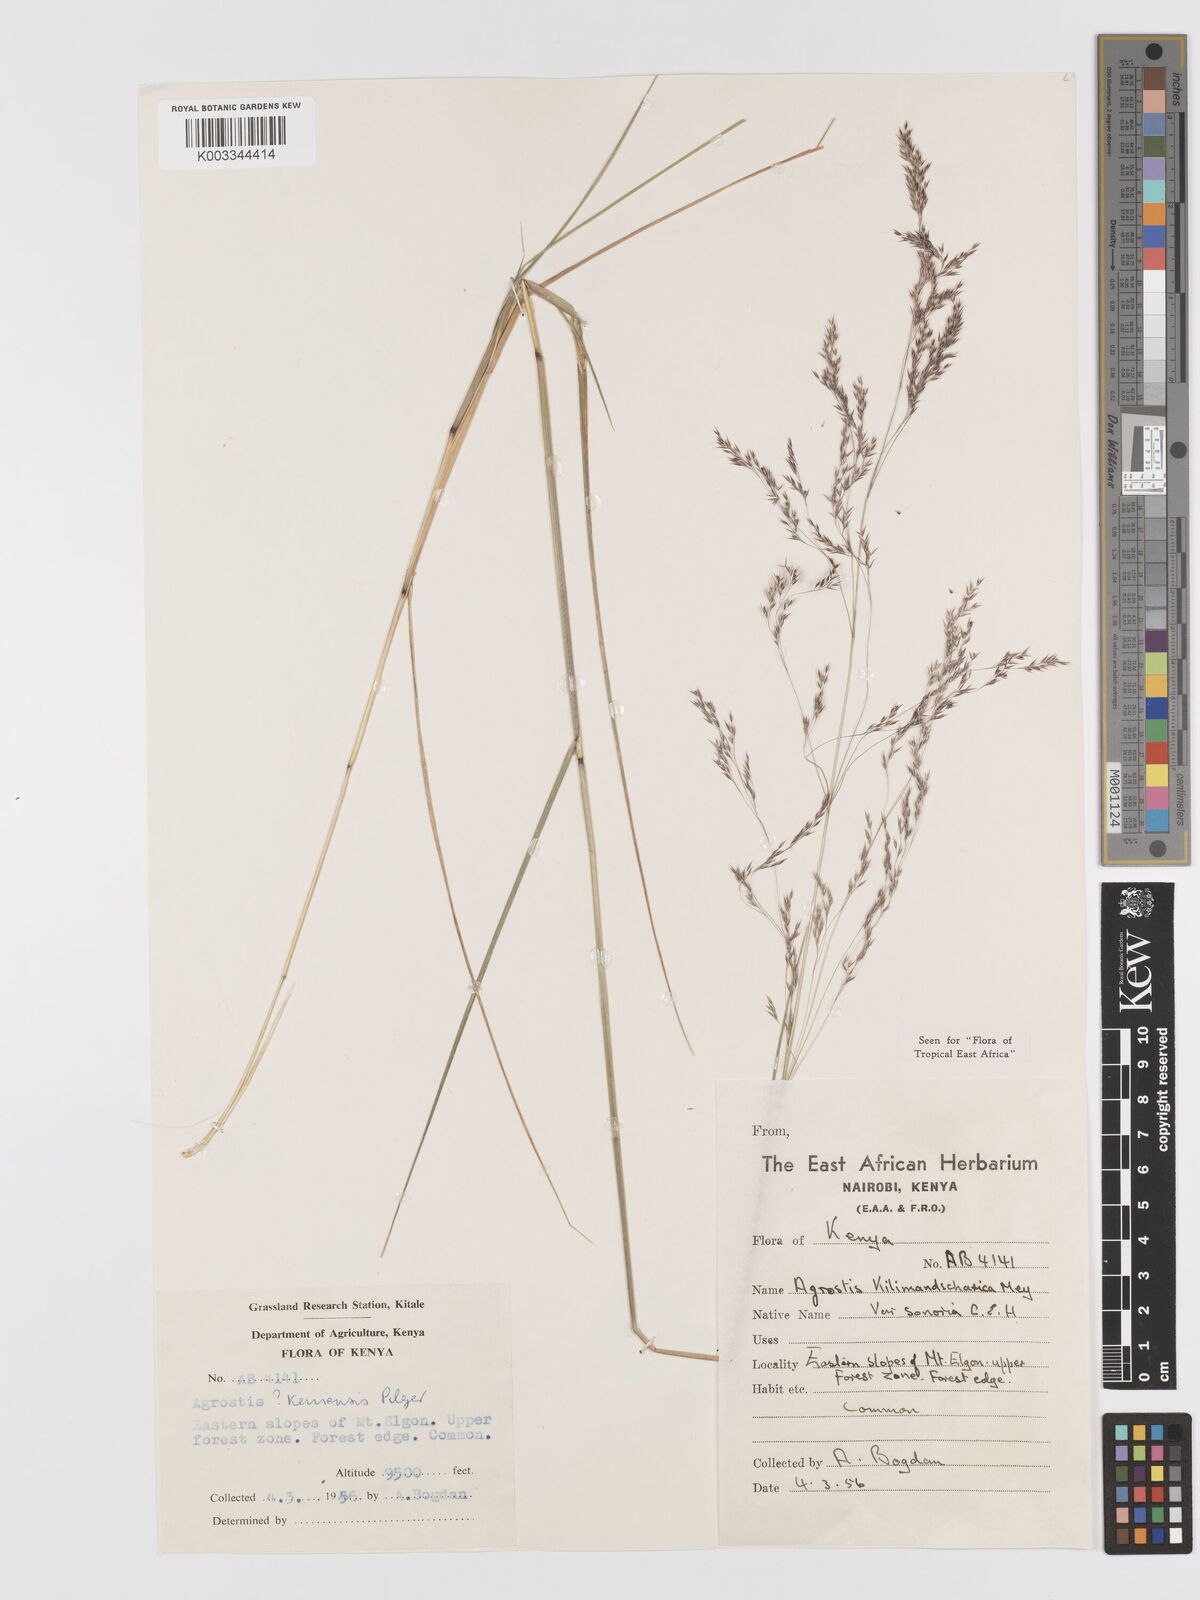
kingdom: Plantae
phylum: Tracheophyta
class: Liliopsida
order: Poales
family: Poaceae
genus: Agrostis
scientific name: Agrostis kilimandscharica
